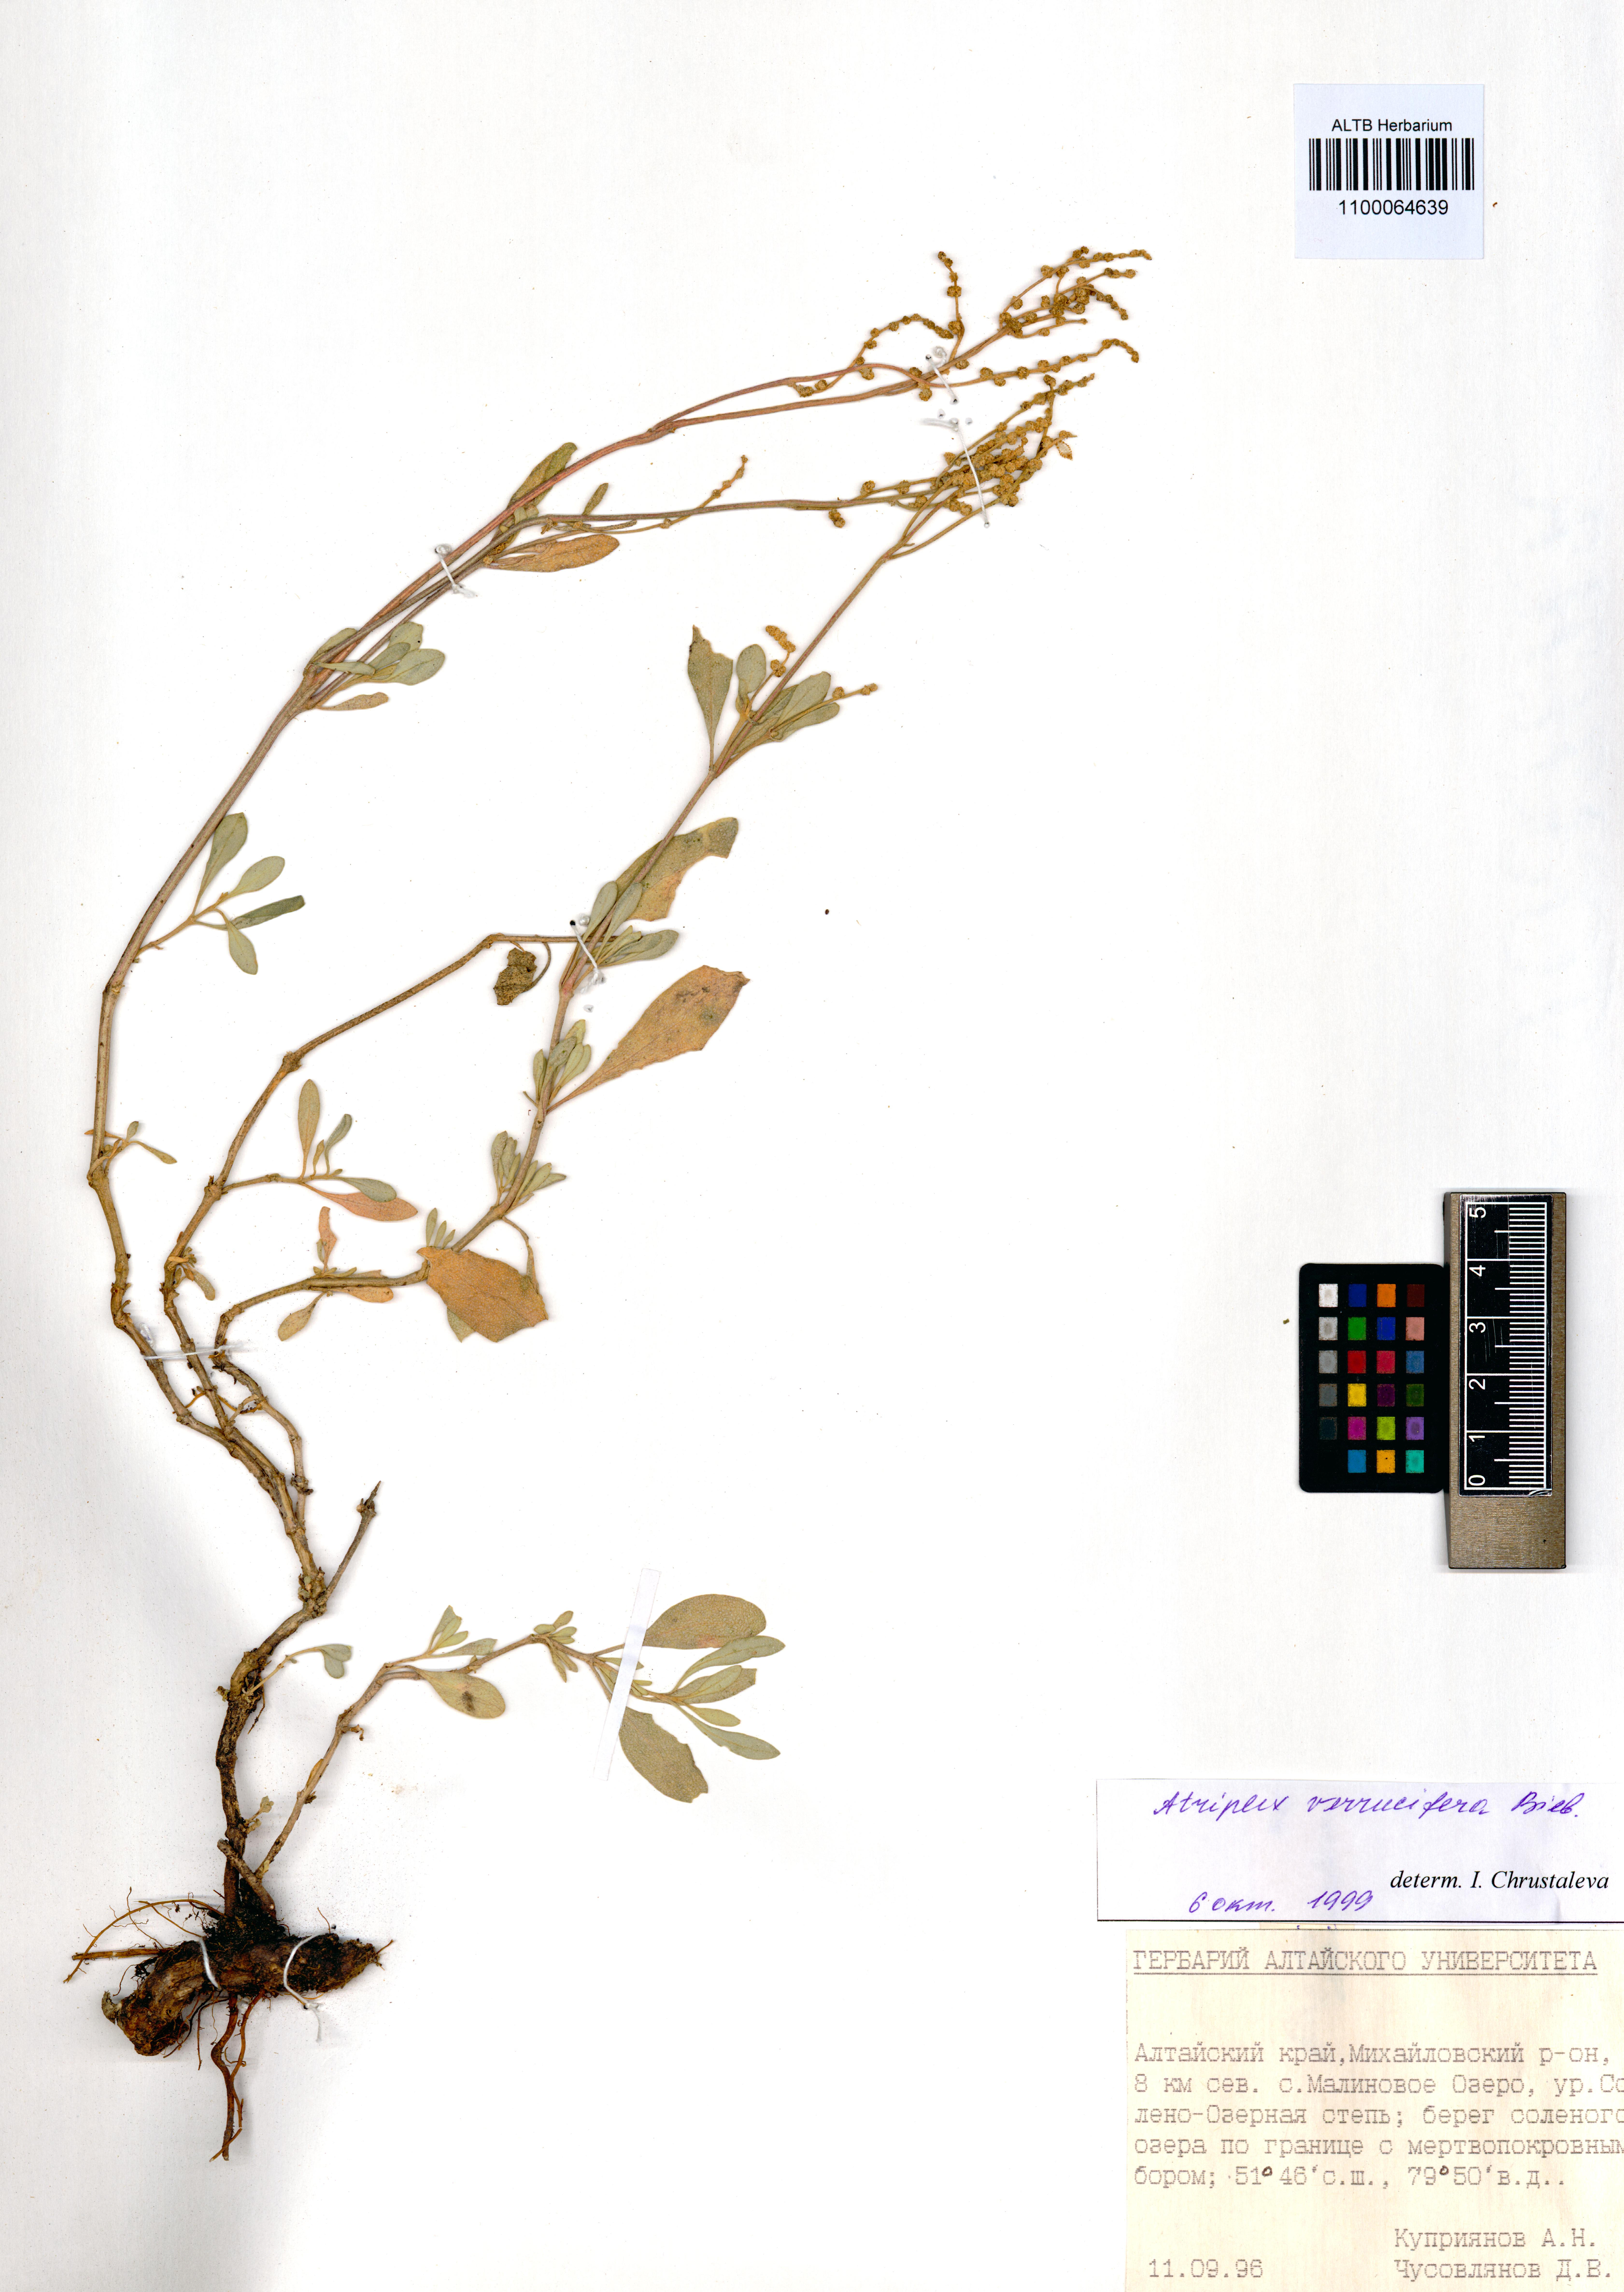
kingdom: Plantae
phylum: Tracheophyta
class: Magnoliopsida
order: Caryophyllales
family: Amaranthaceae
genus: Halimione
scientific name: Halimione verrucifera
